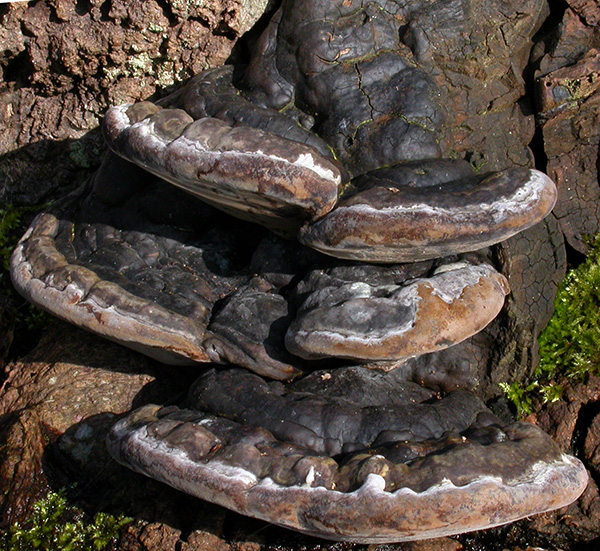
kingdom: Fungi
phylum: Basidiomycota
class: Agaricomycetes
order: Hymenochaetales
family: Hymenochaetaceae
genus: Phellinus
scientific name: Phellinus populicola
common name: poppel-ildporesvamp
